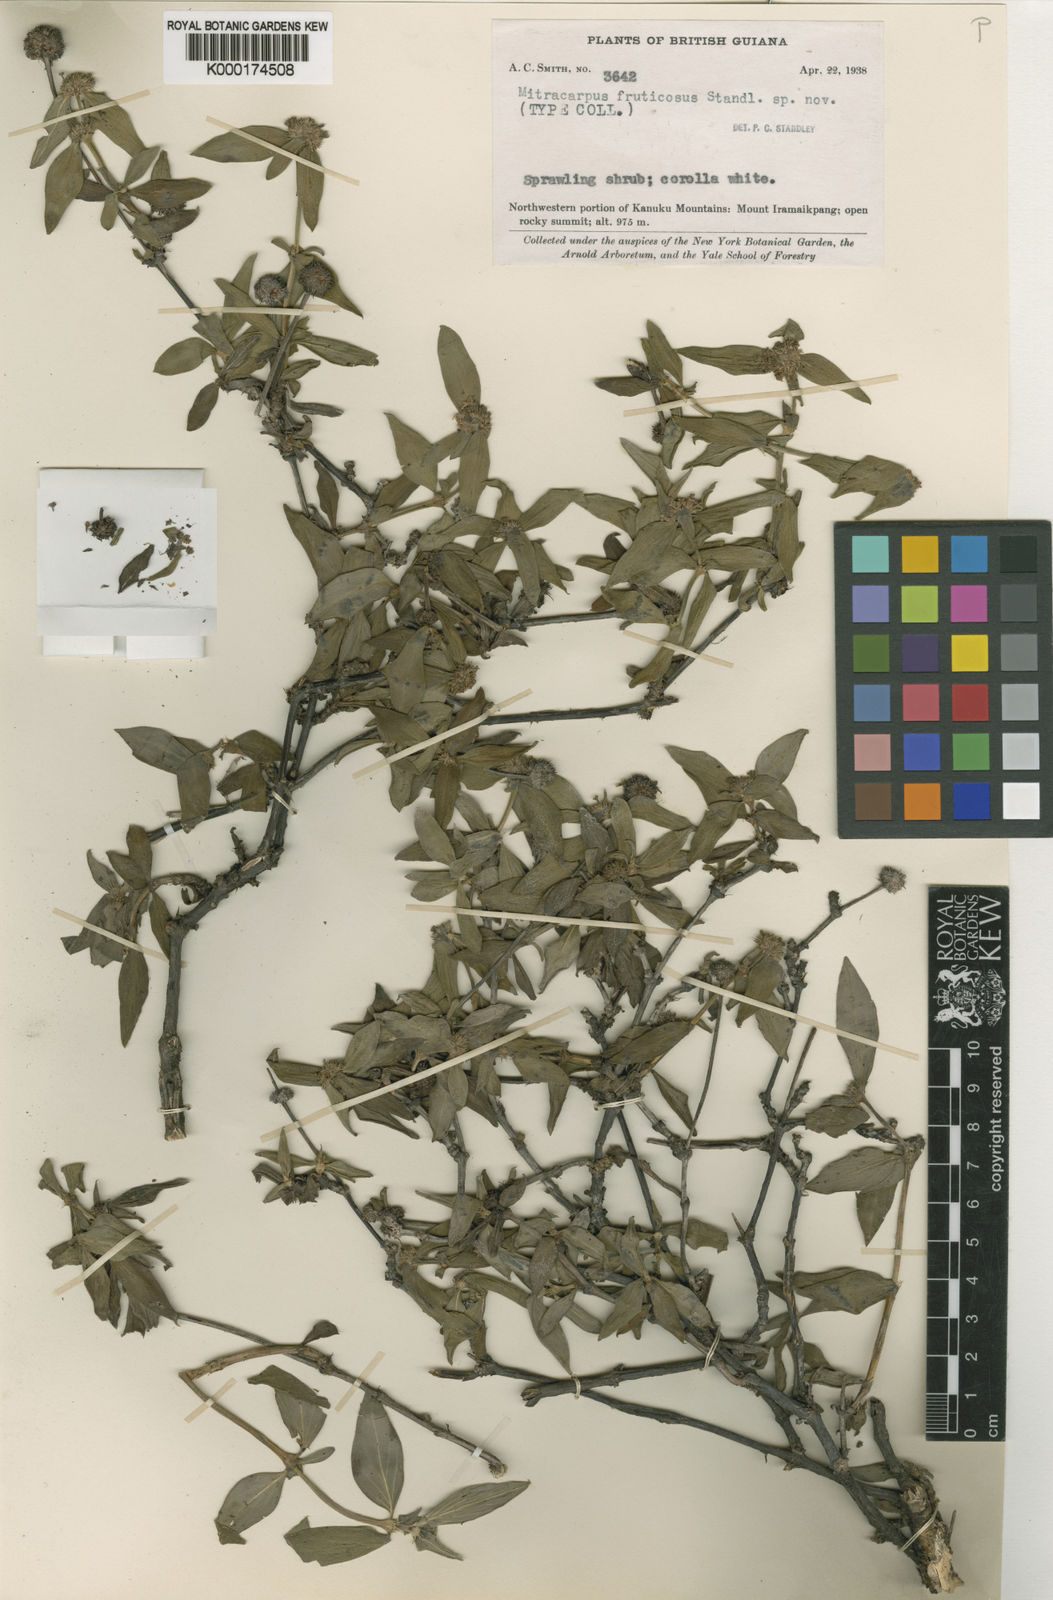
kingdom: Plantae
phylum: Tracheophyta
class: Magnoliopsida
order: Gentianales
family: Rubiaceae
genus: Mitracarpus
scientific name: Mitracarpus frigidus
